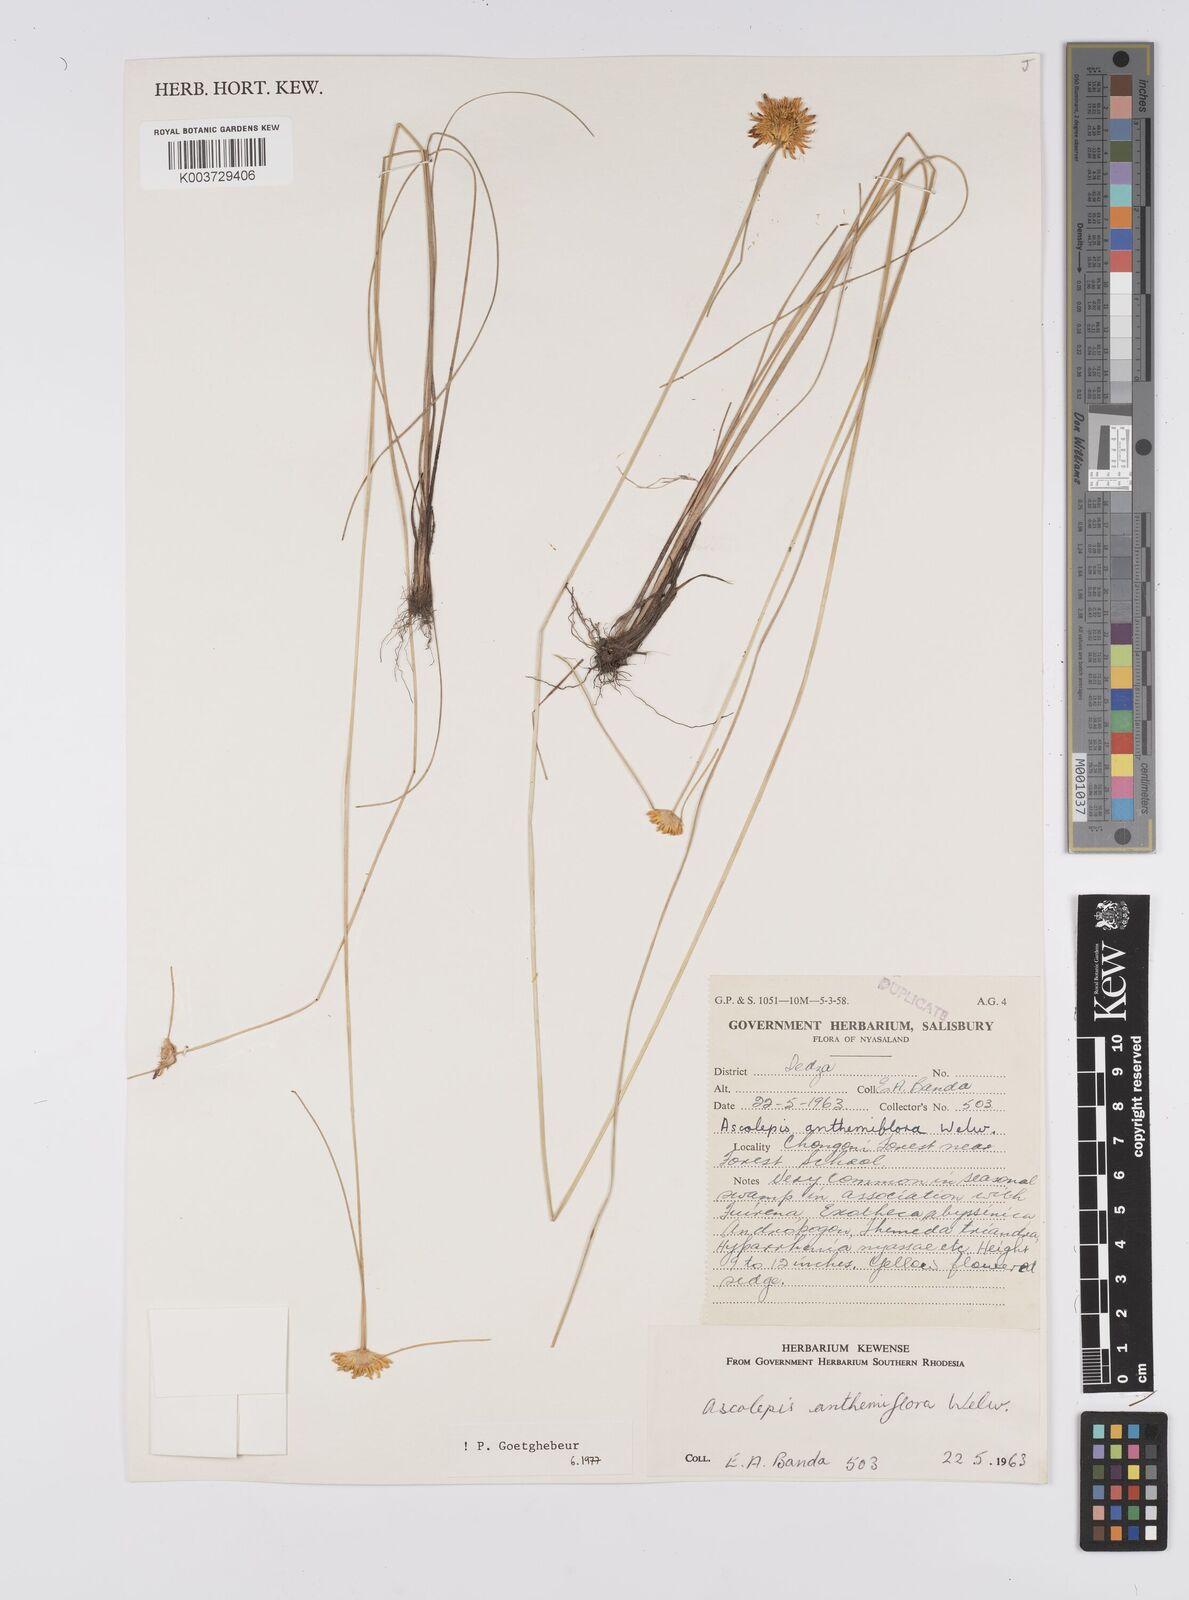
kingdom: Plantae
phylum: Tracheophyta
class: Liliopsida
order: Poales
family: Cyperaceae
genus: Cyperus
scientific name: Cyperus
